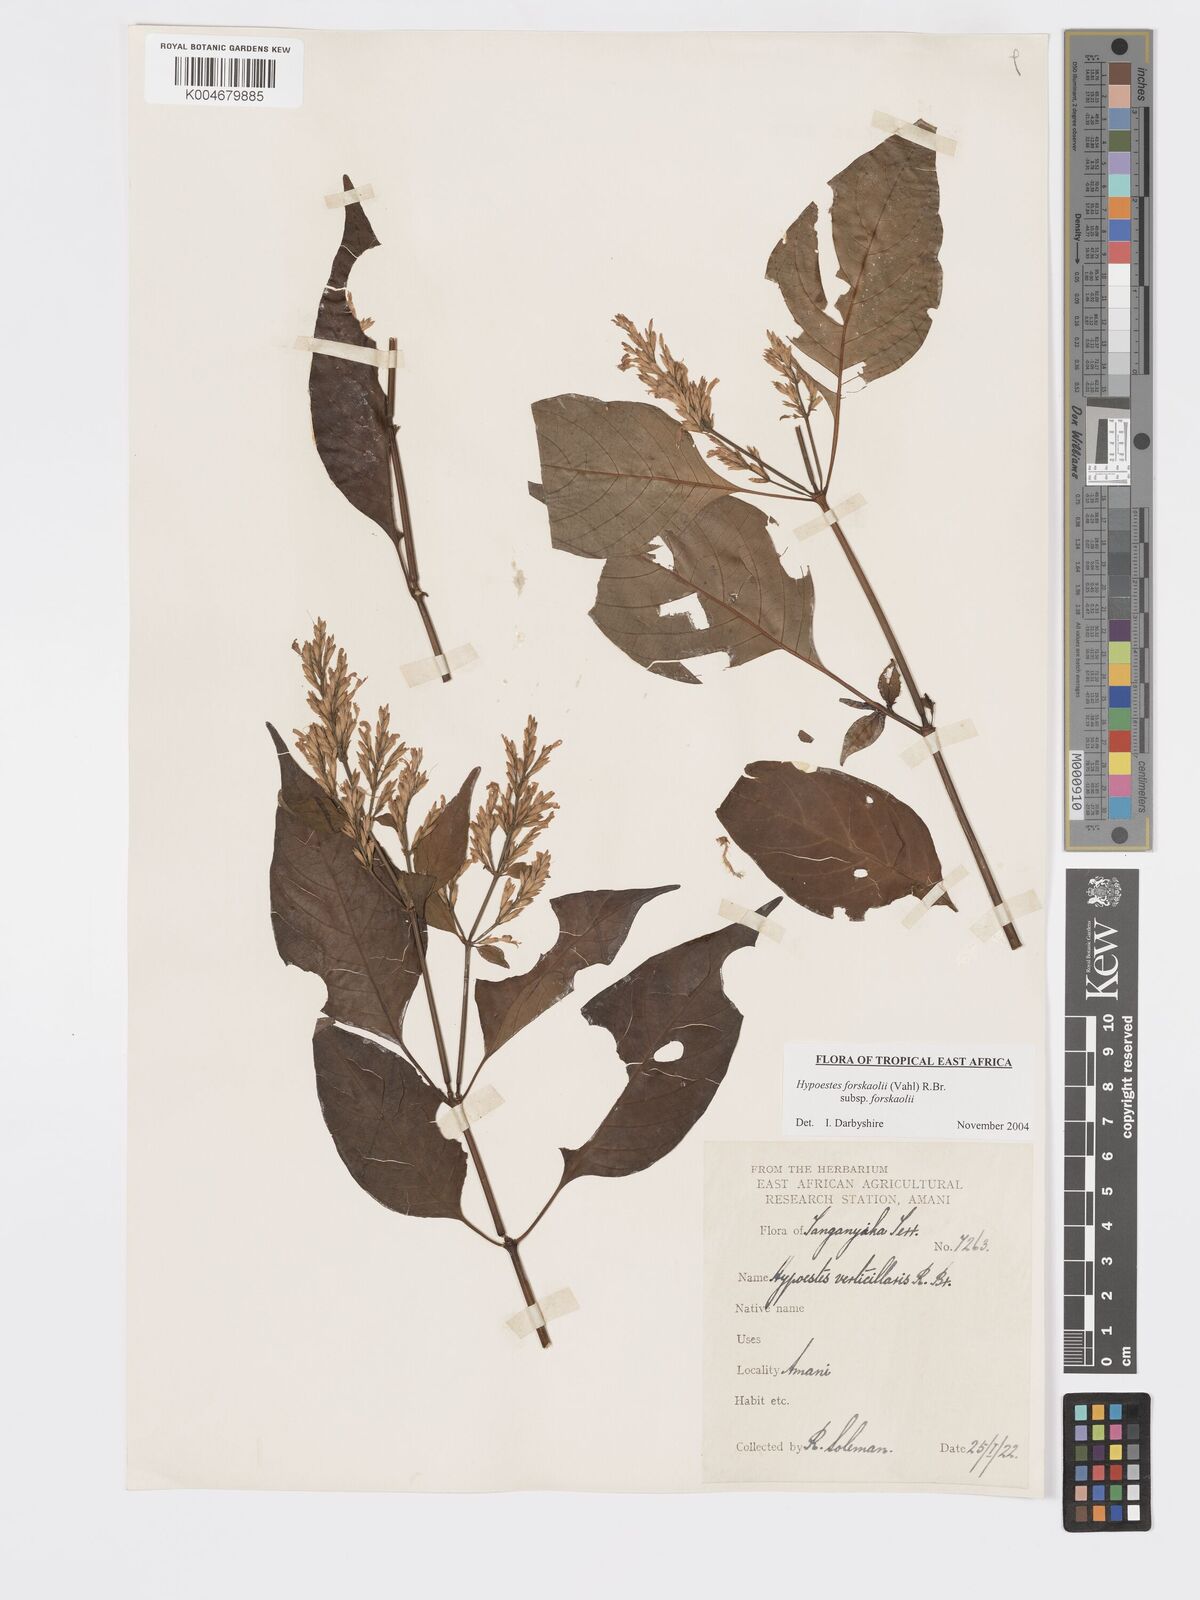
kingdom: Plantae
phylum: Tracheophyta
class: Magnoliopsida
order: Lamiales
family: Acanthaceae
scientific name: Acanthaceae
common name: Acanthaceae
